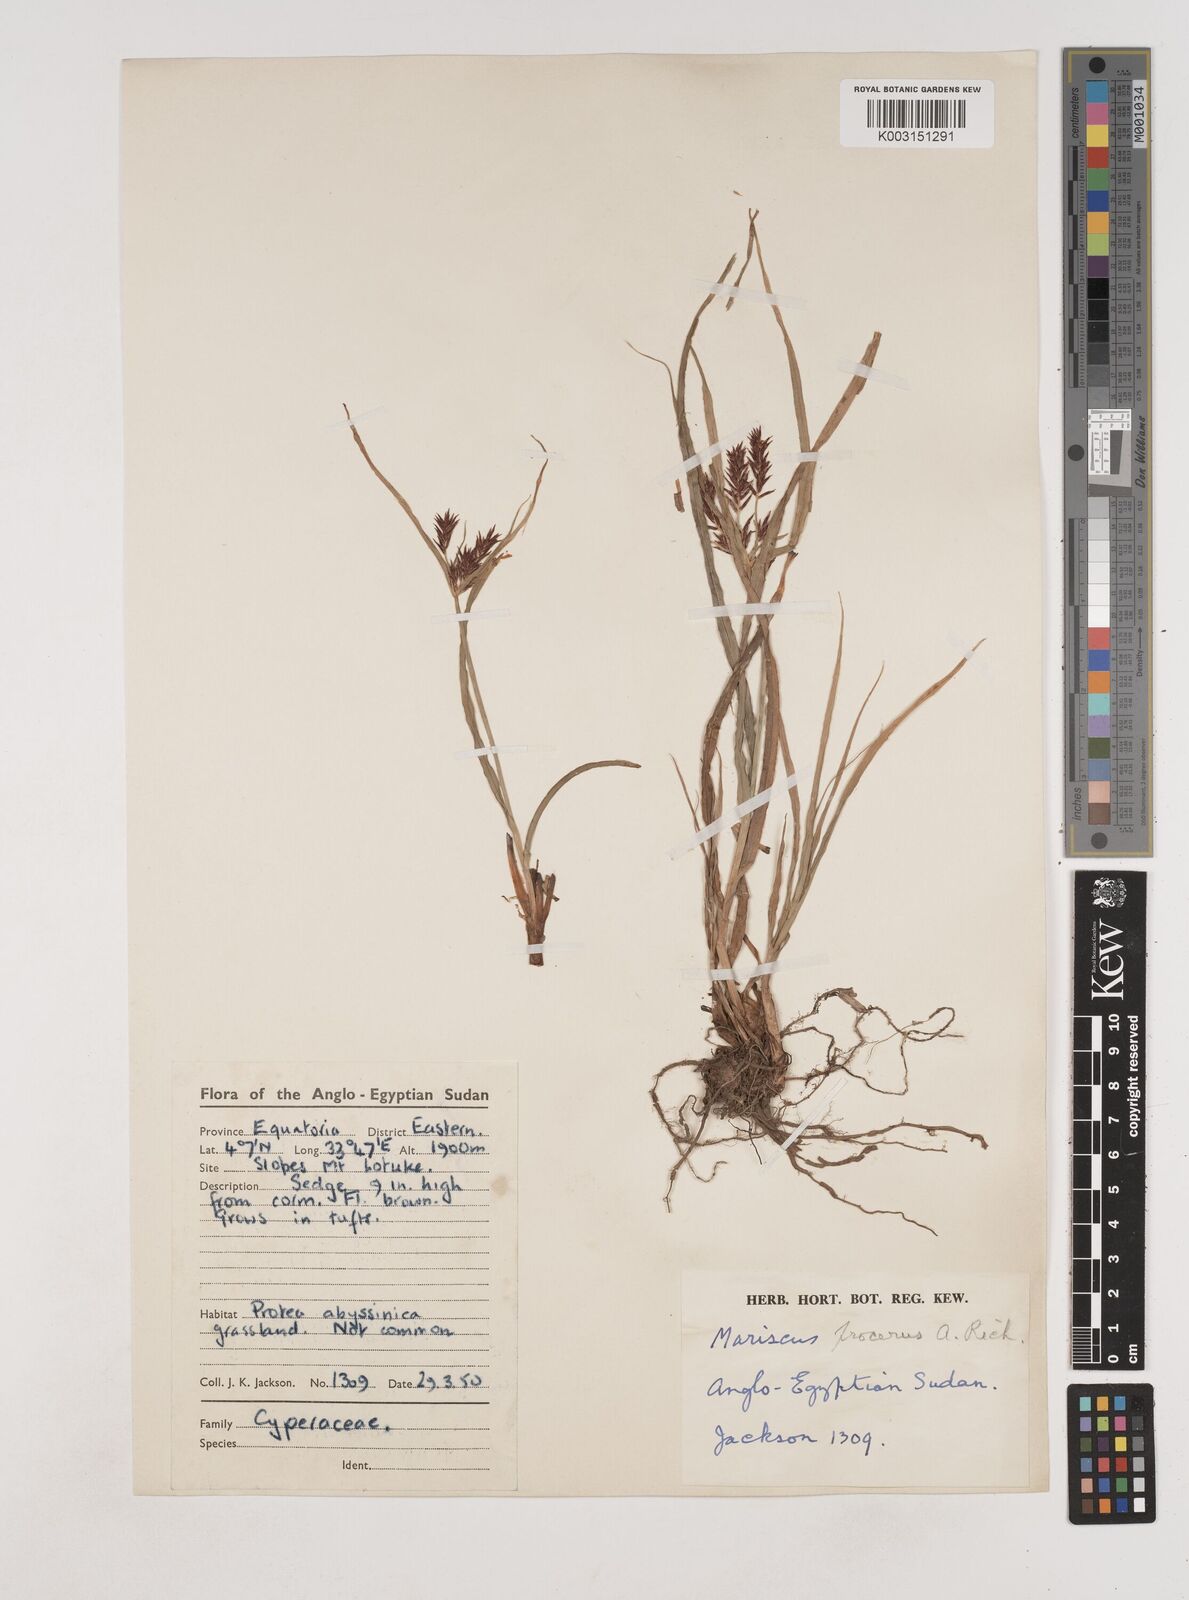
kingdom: Plantae
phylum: Tracheophyta
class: Liliopsida
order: Poales
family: Cyperaceae
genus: Cyperus
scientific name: Cyperus impubes
